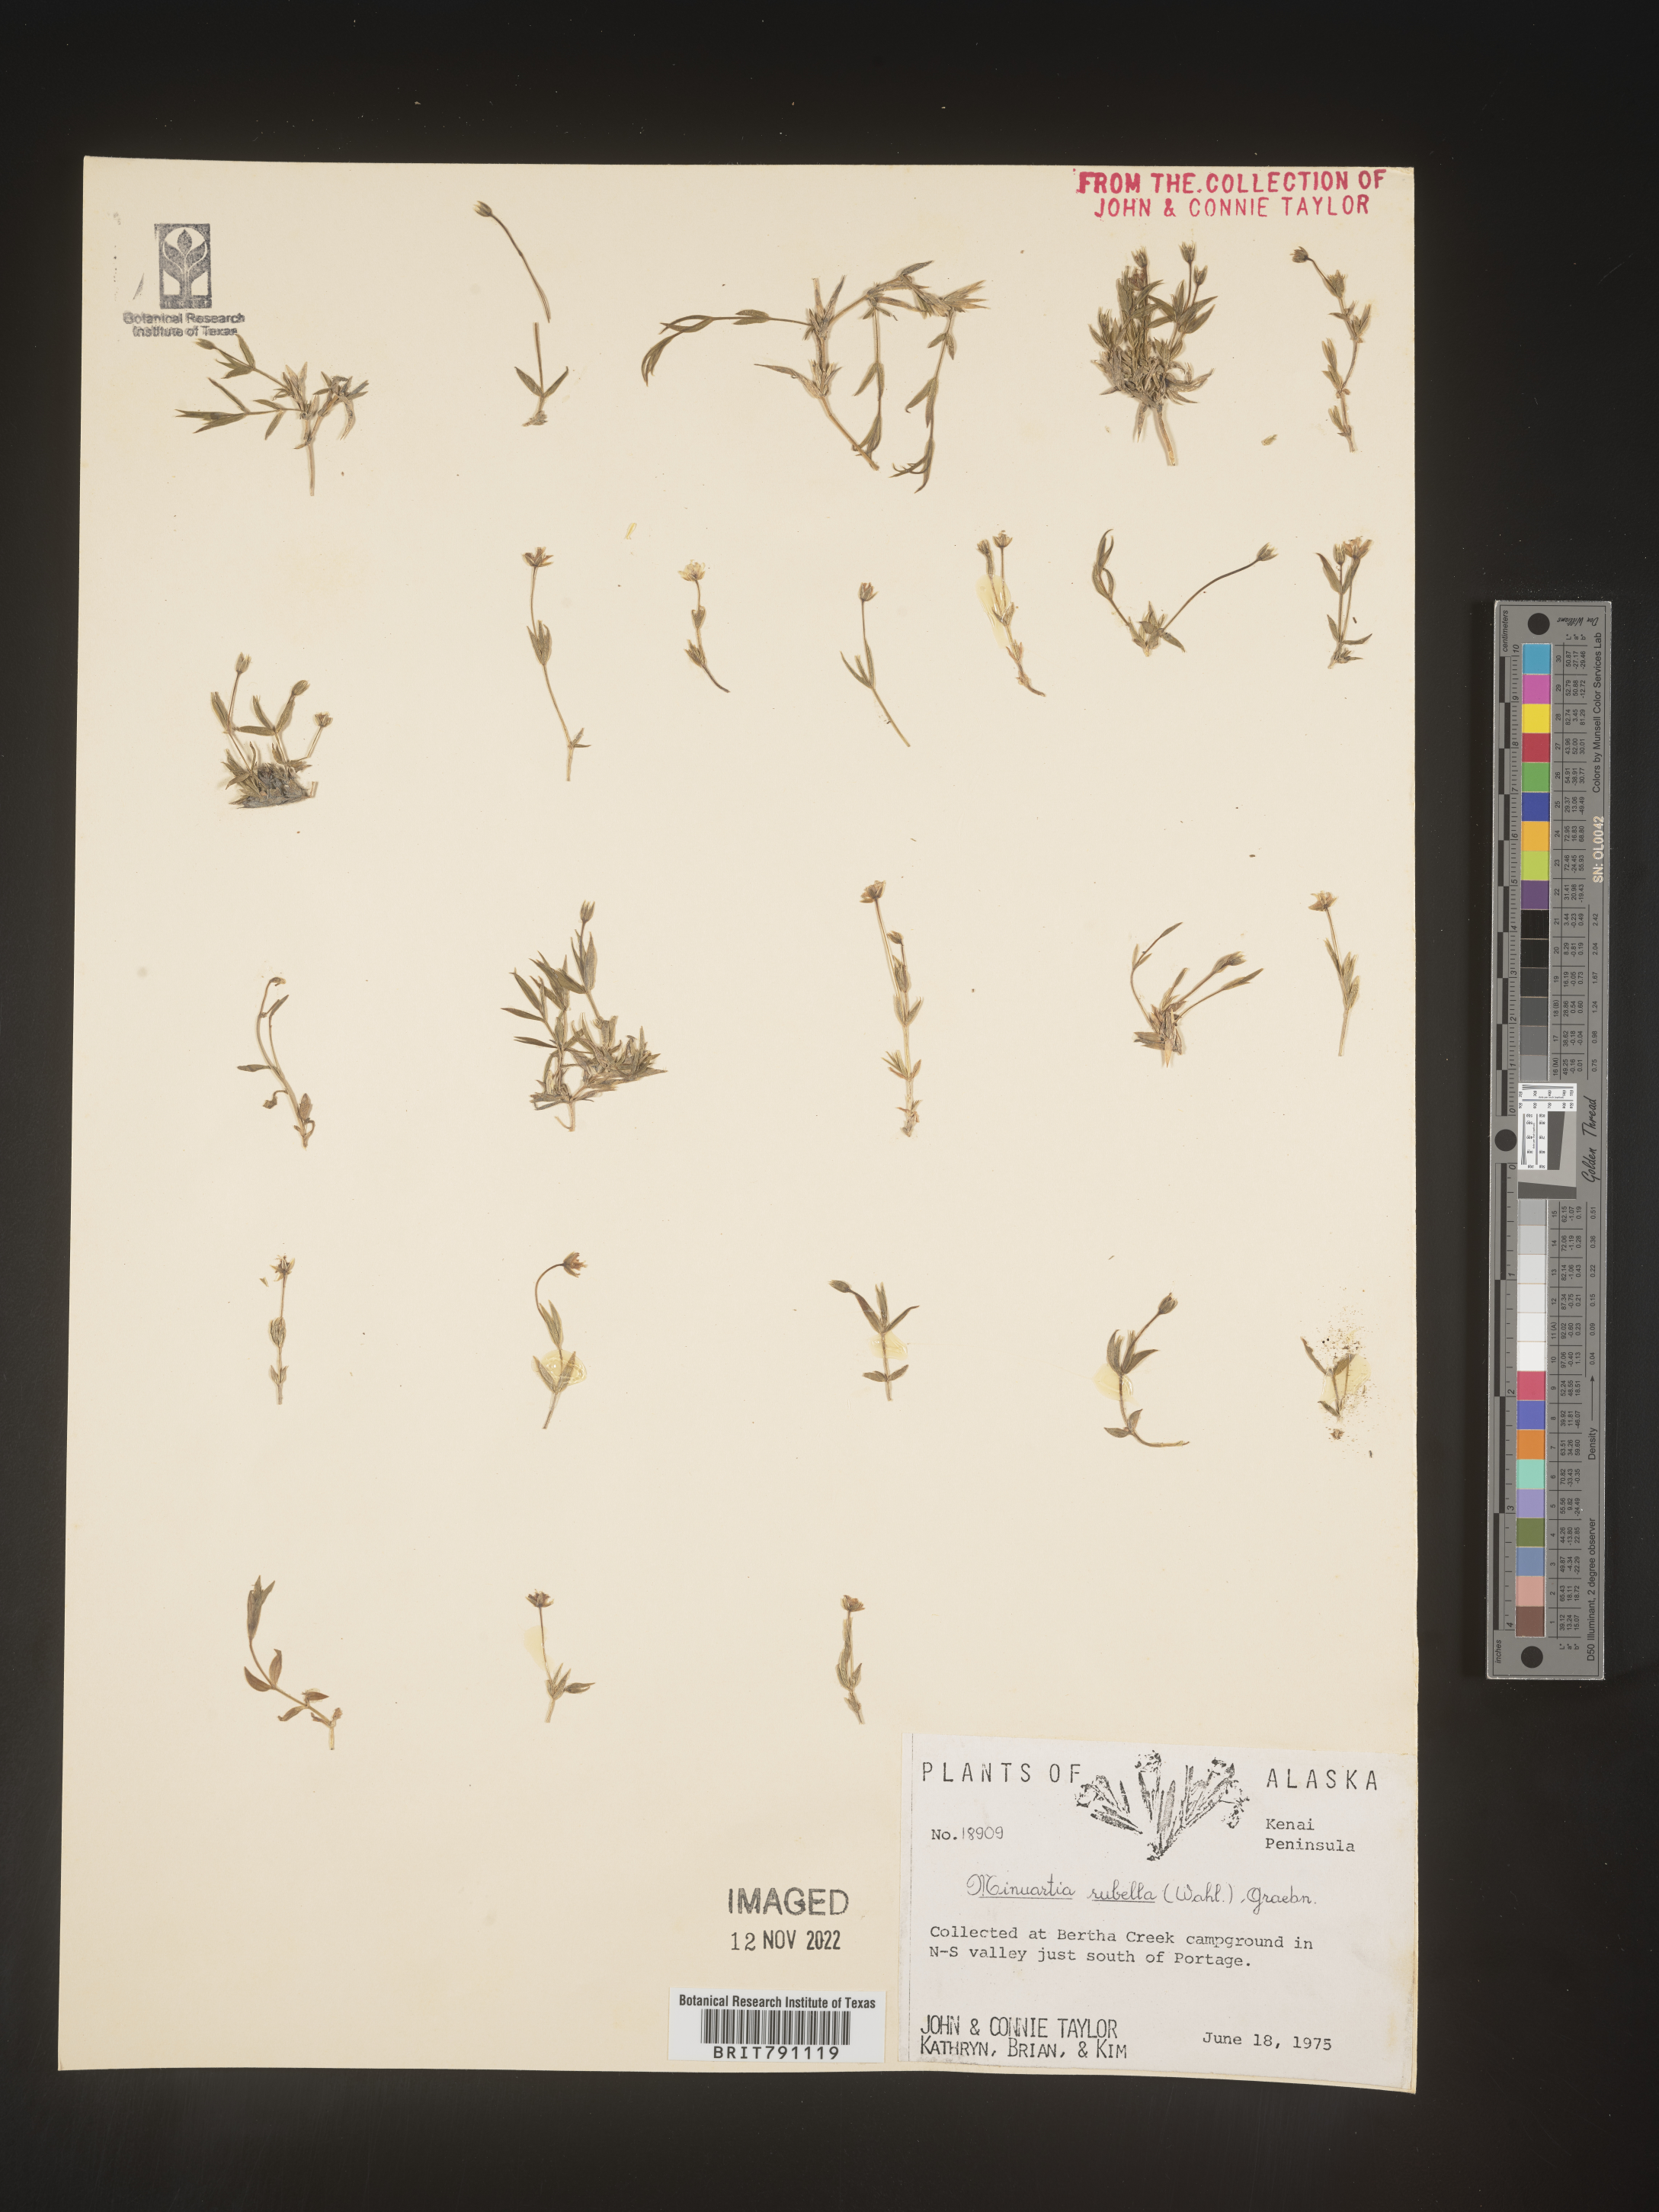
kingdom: Plantae
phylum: Tracheophyta
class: Magnoliopsida
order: Caryophyllales
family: Caryophyllaceae
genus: Sabulina
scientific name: Sabulina rubella
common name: Beautiful sandwort
